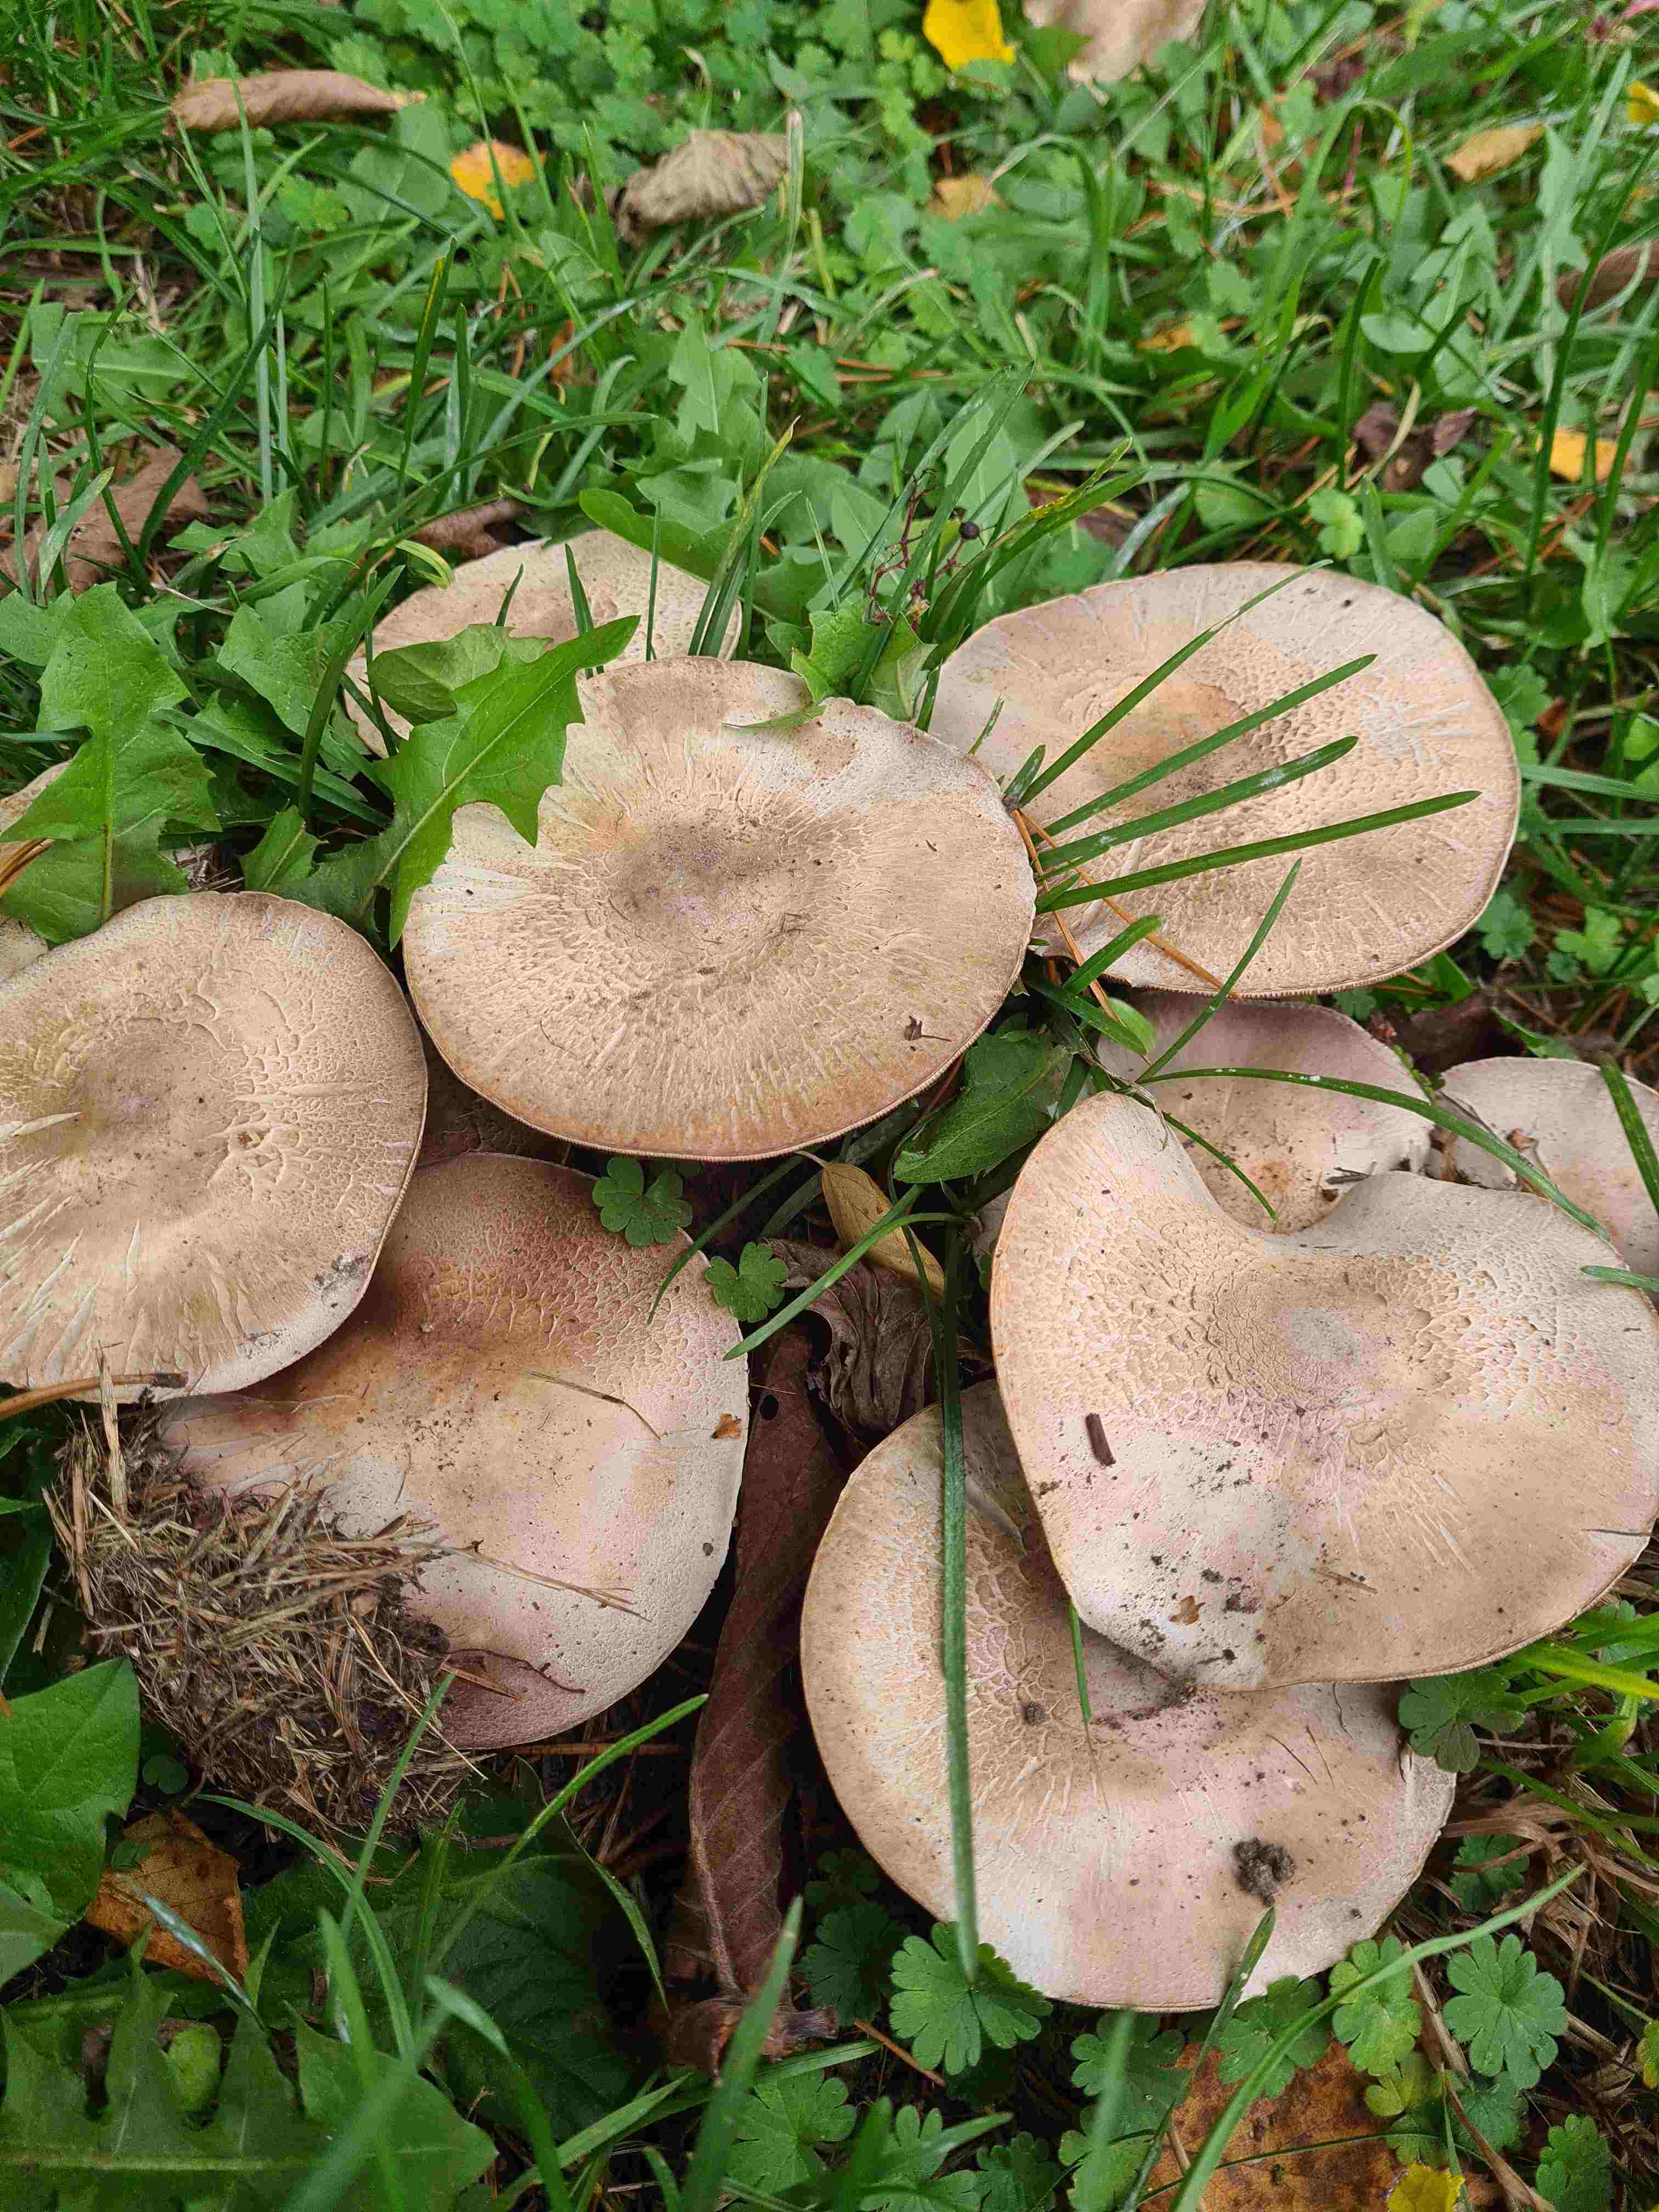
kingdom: Fungi
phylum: Basidiomycota
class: Agaricomycetes
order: Agaricales
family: Agaricaceae
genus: Agaricus
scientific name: Agaricus
